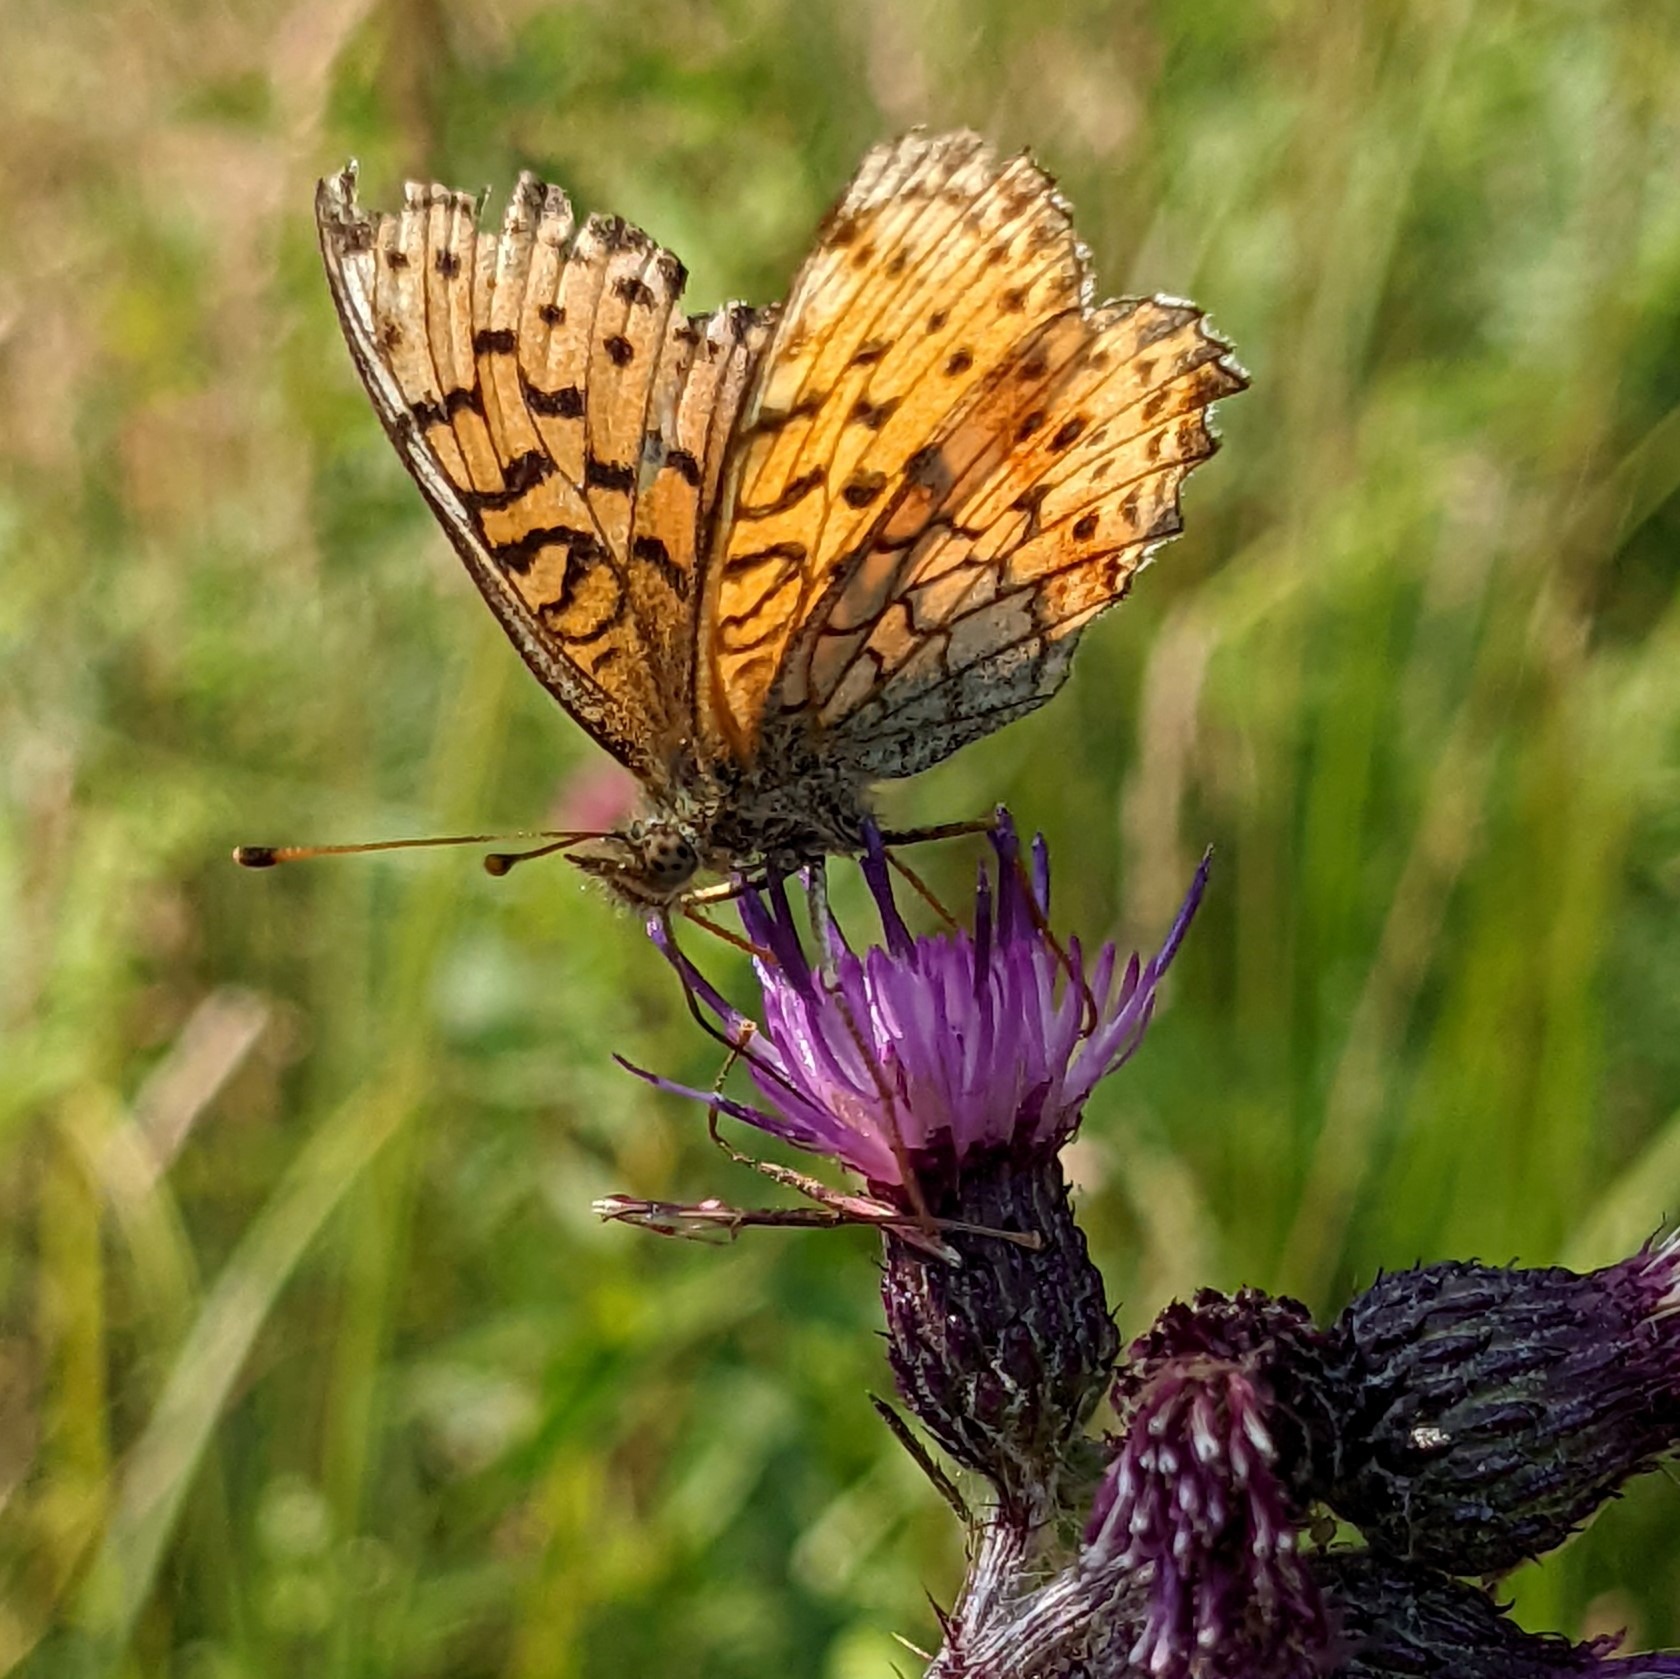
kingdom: Animalia
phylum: Arthropoda
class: Insecta
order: Lepidoptera
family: Nymphalidae
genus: Brenthis
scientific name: Brenthis ino
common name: Engperlemorsommerfugl
